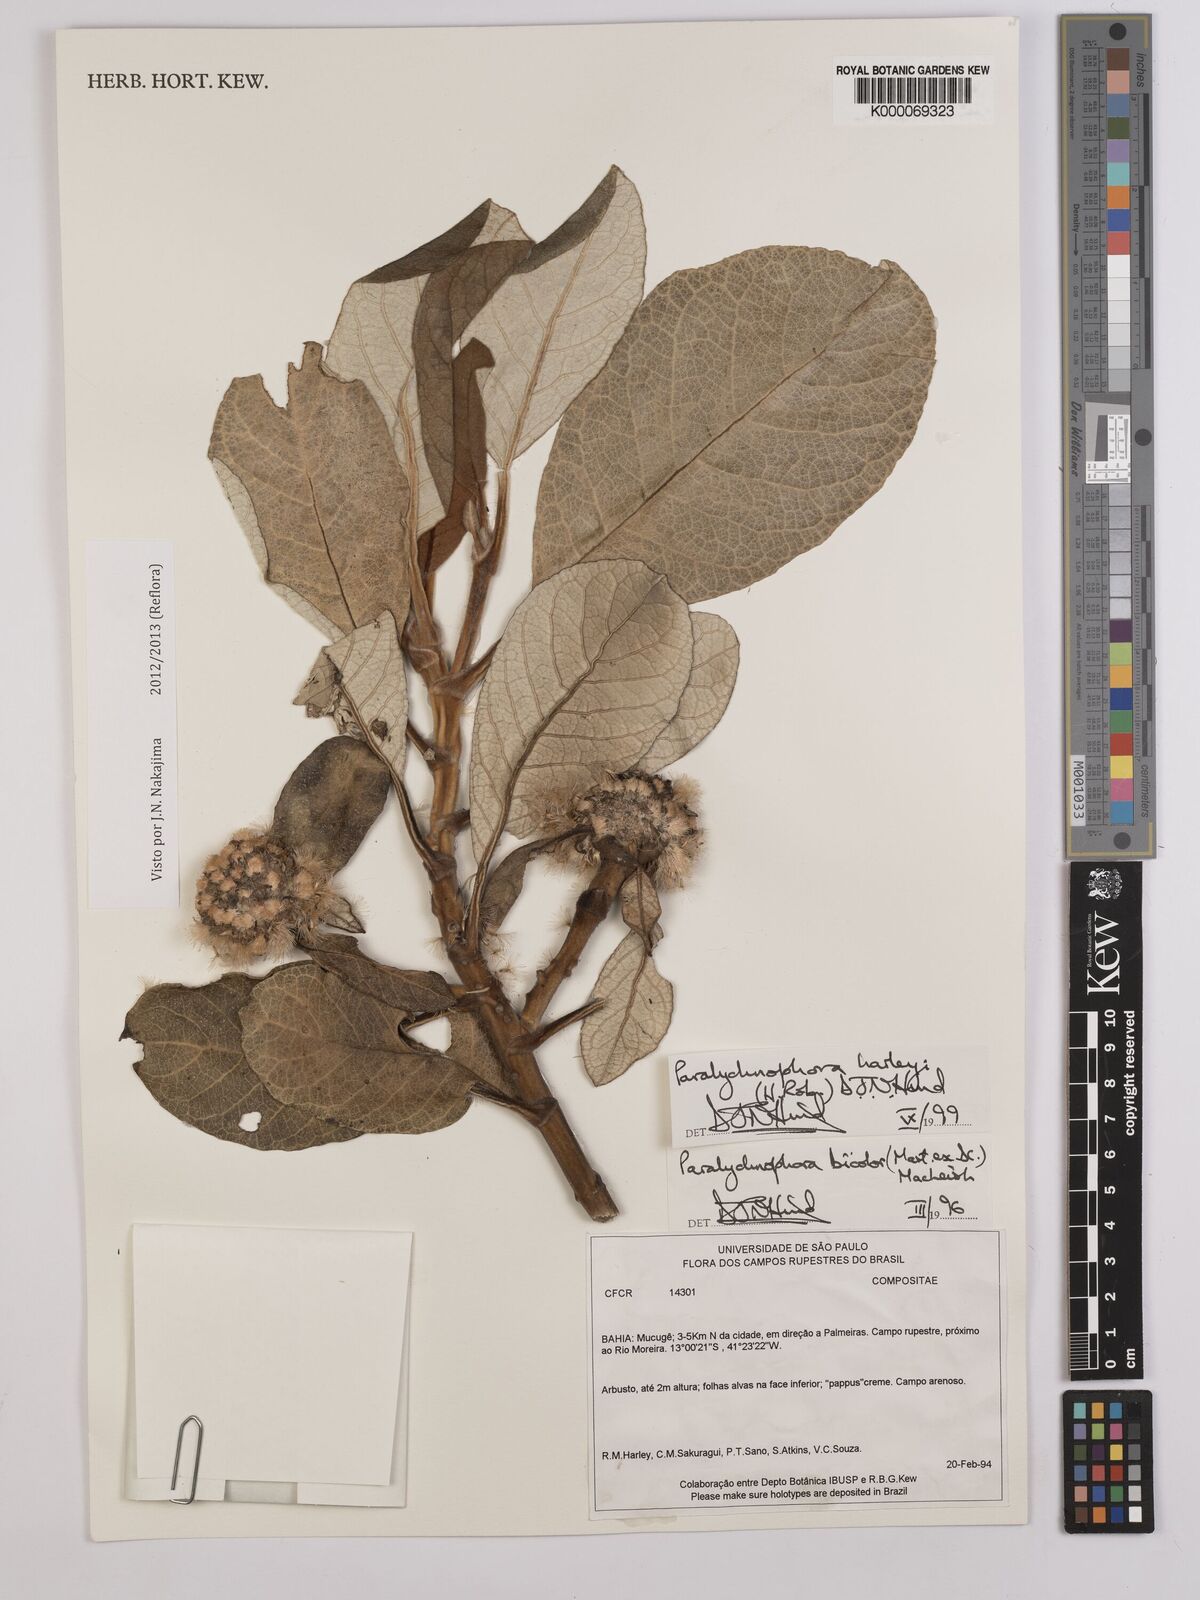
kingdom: Plantae
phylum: Tracheophyta
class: Magnoliopsida
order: Asterales
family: Asteraceae
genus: Paralychnophora
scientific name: Paralychnophora harleyi
